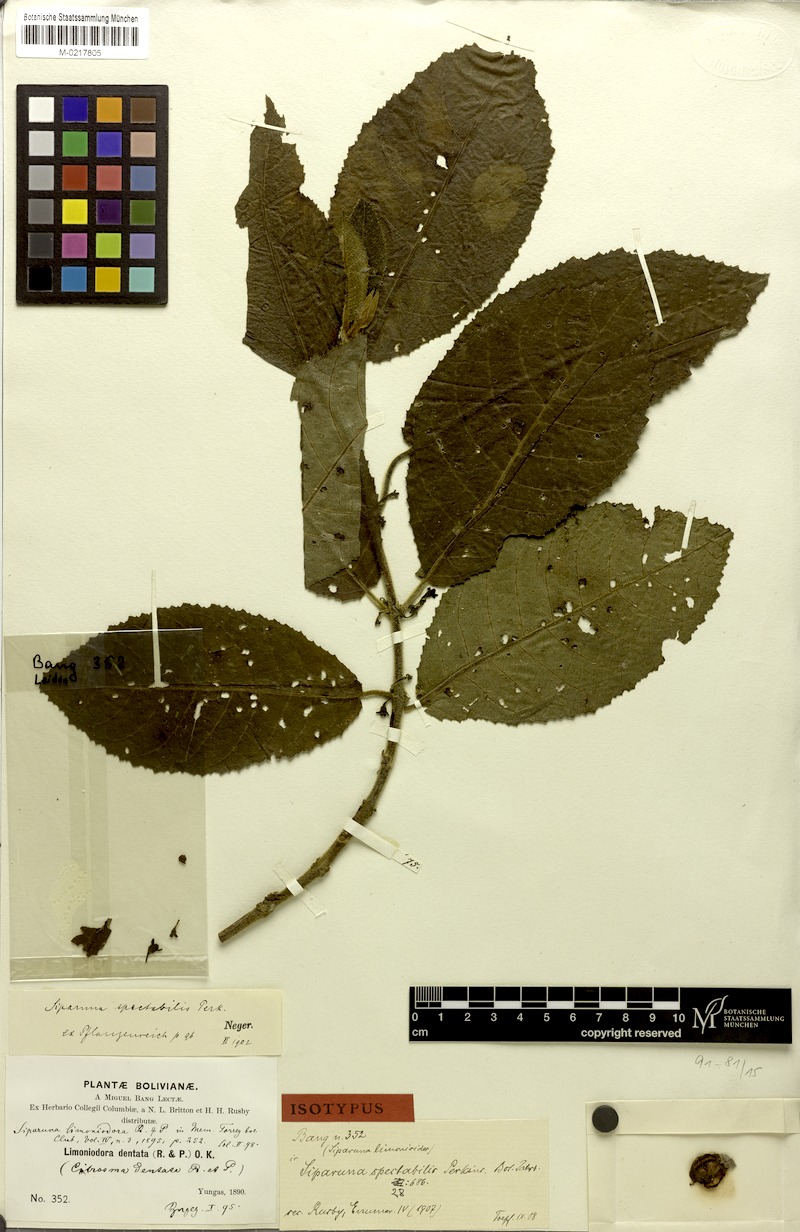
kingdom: Plantae
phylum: Tracheophyta
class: Magnoliopsida
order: Laurales
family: Siparunaceae
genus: Siparuna
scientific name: Siparuna aspera
